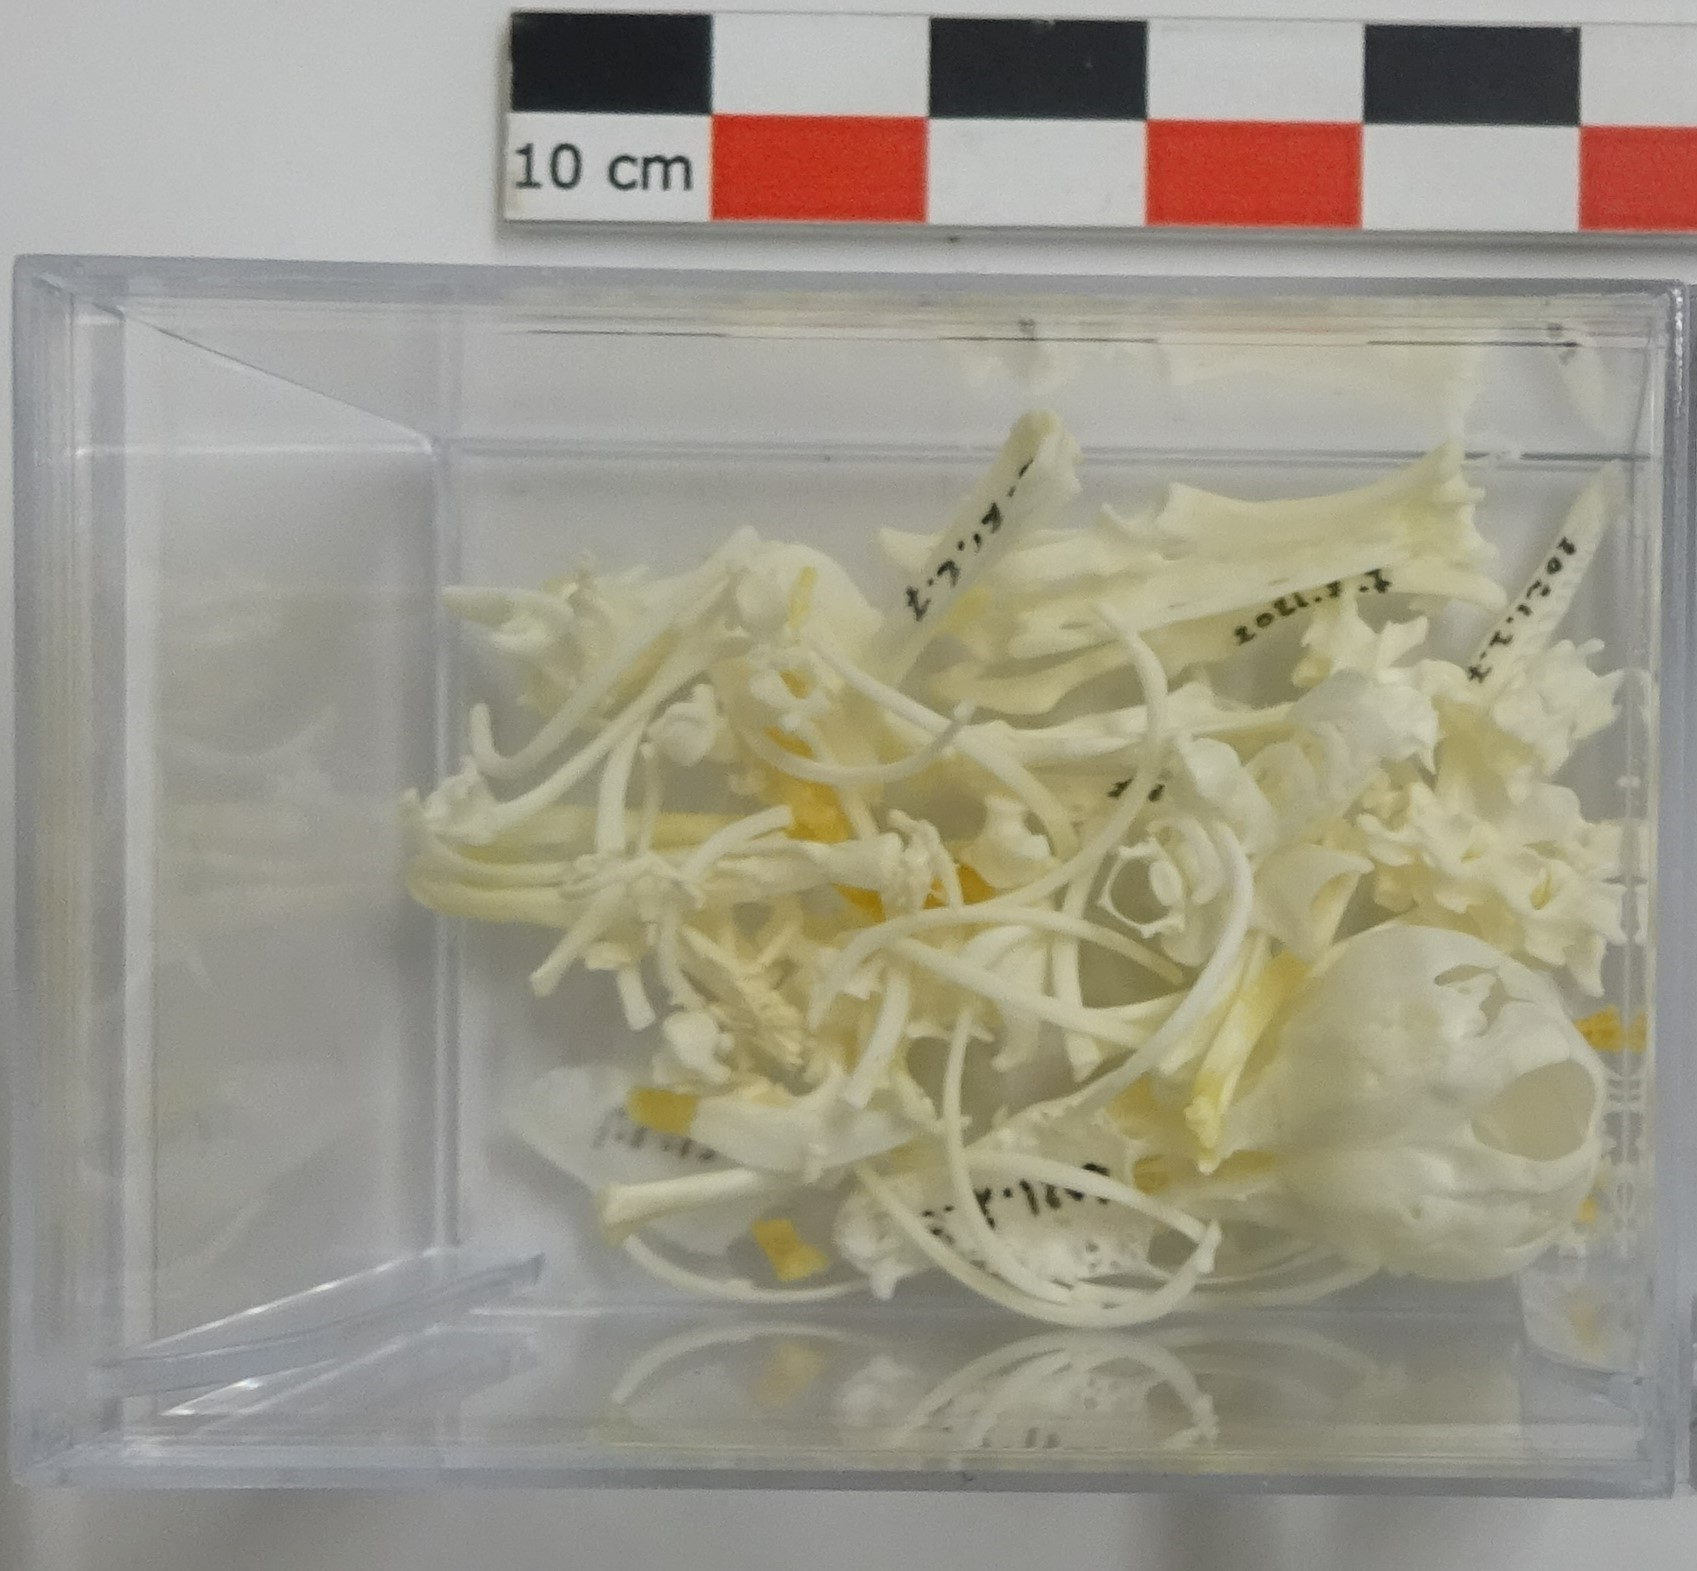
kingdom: Animalia
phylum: Chordata
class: Mammalia
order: Soricomorpha
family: Talpidae
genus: Talpa
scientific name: Talpa europaea
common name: European mole
